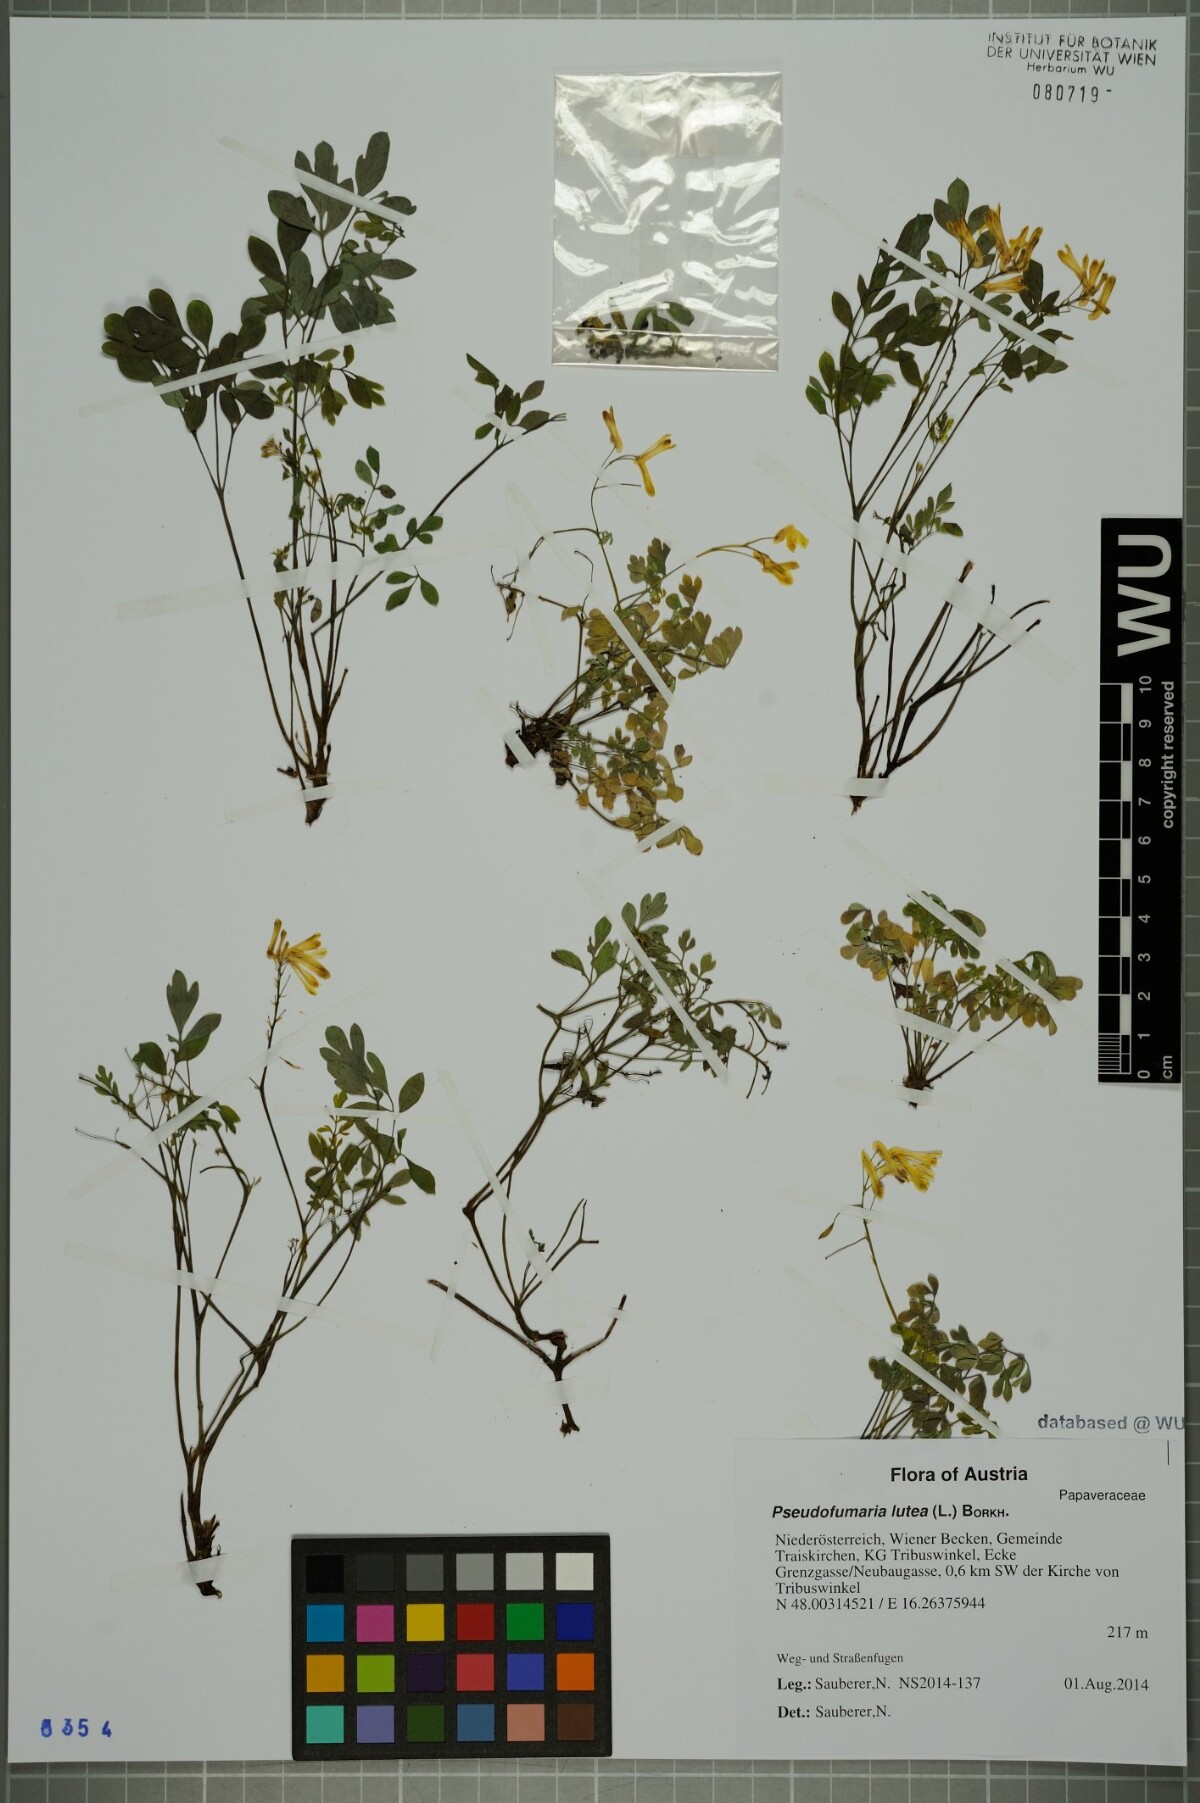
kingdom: Plantae
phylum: Tracheophyta
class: Magnoliopsida
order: Ranunculales
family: Papaveraceae
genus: Pseudofumaria
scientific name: Pseudofumaria lutea
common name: Yellow corydalis
